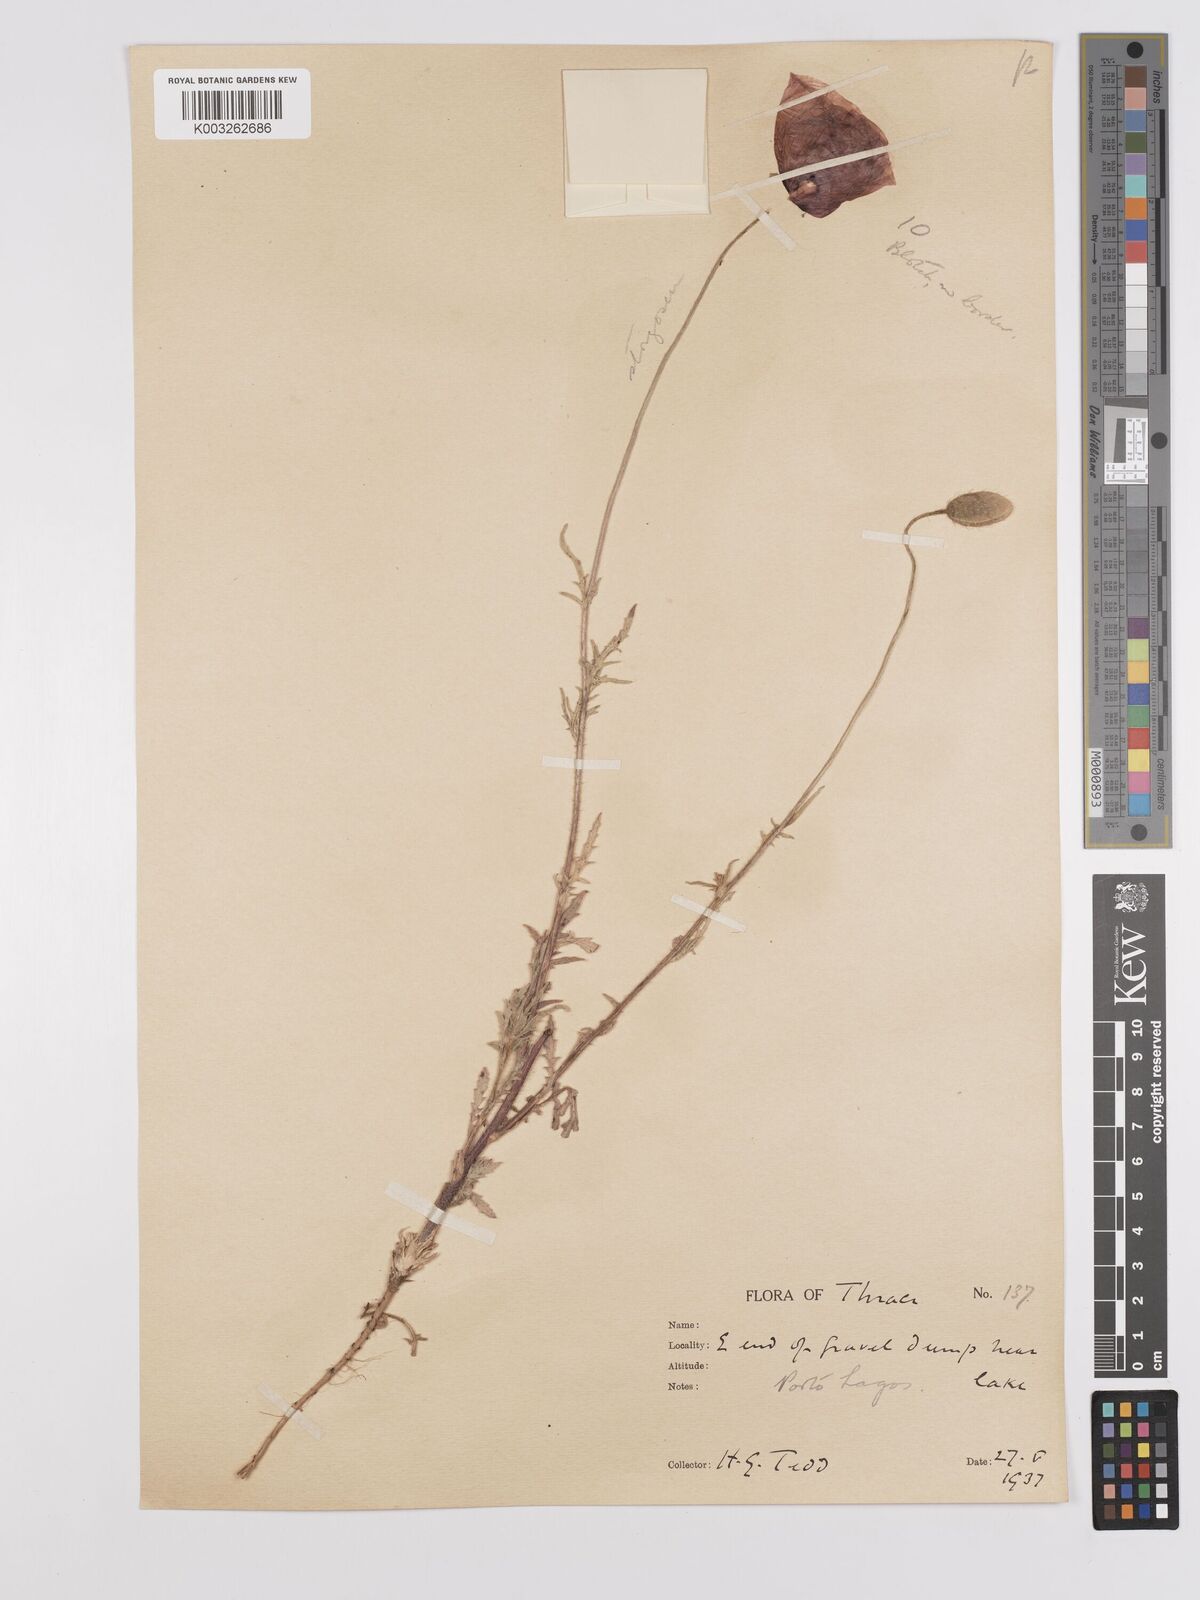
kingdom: Plantae
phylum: Tracheophyta
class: Magnoliopsida
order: Ranunculales
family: Papaveraceae
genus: Papaver
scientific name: Papaver
